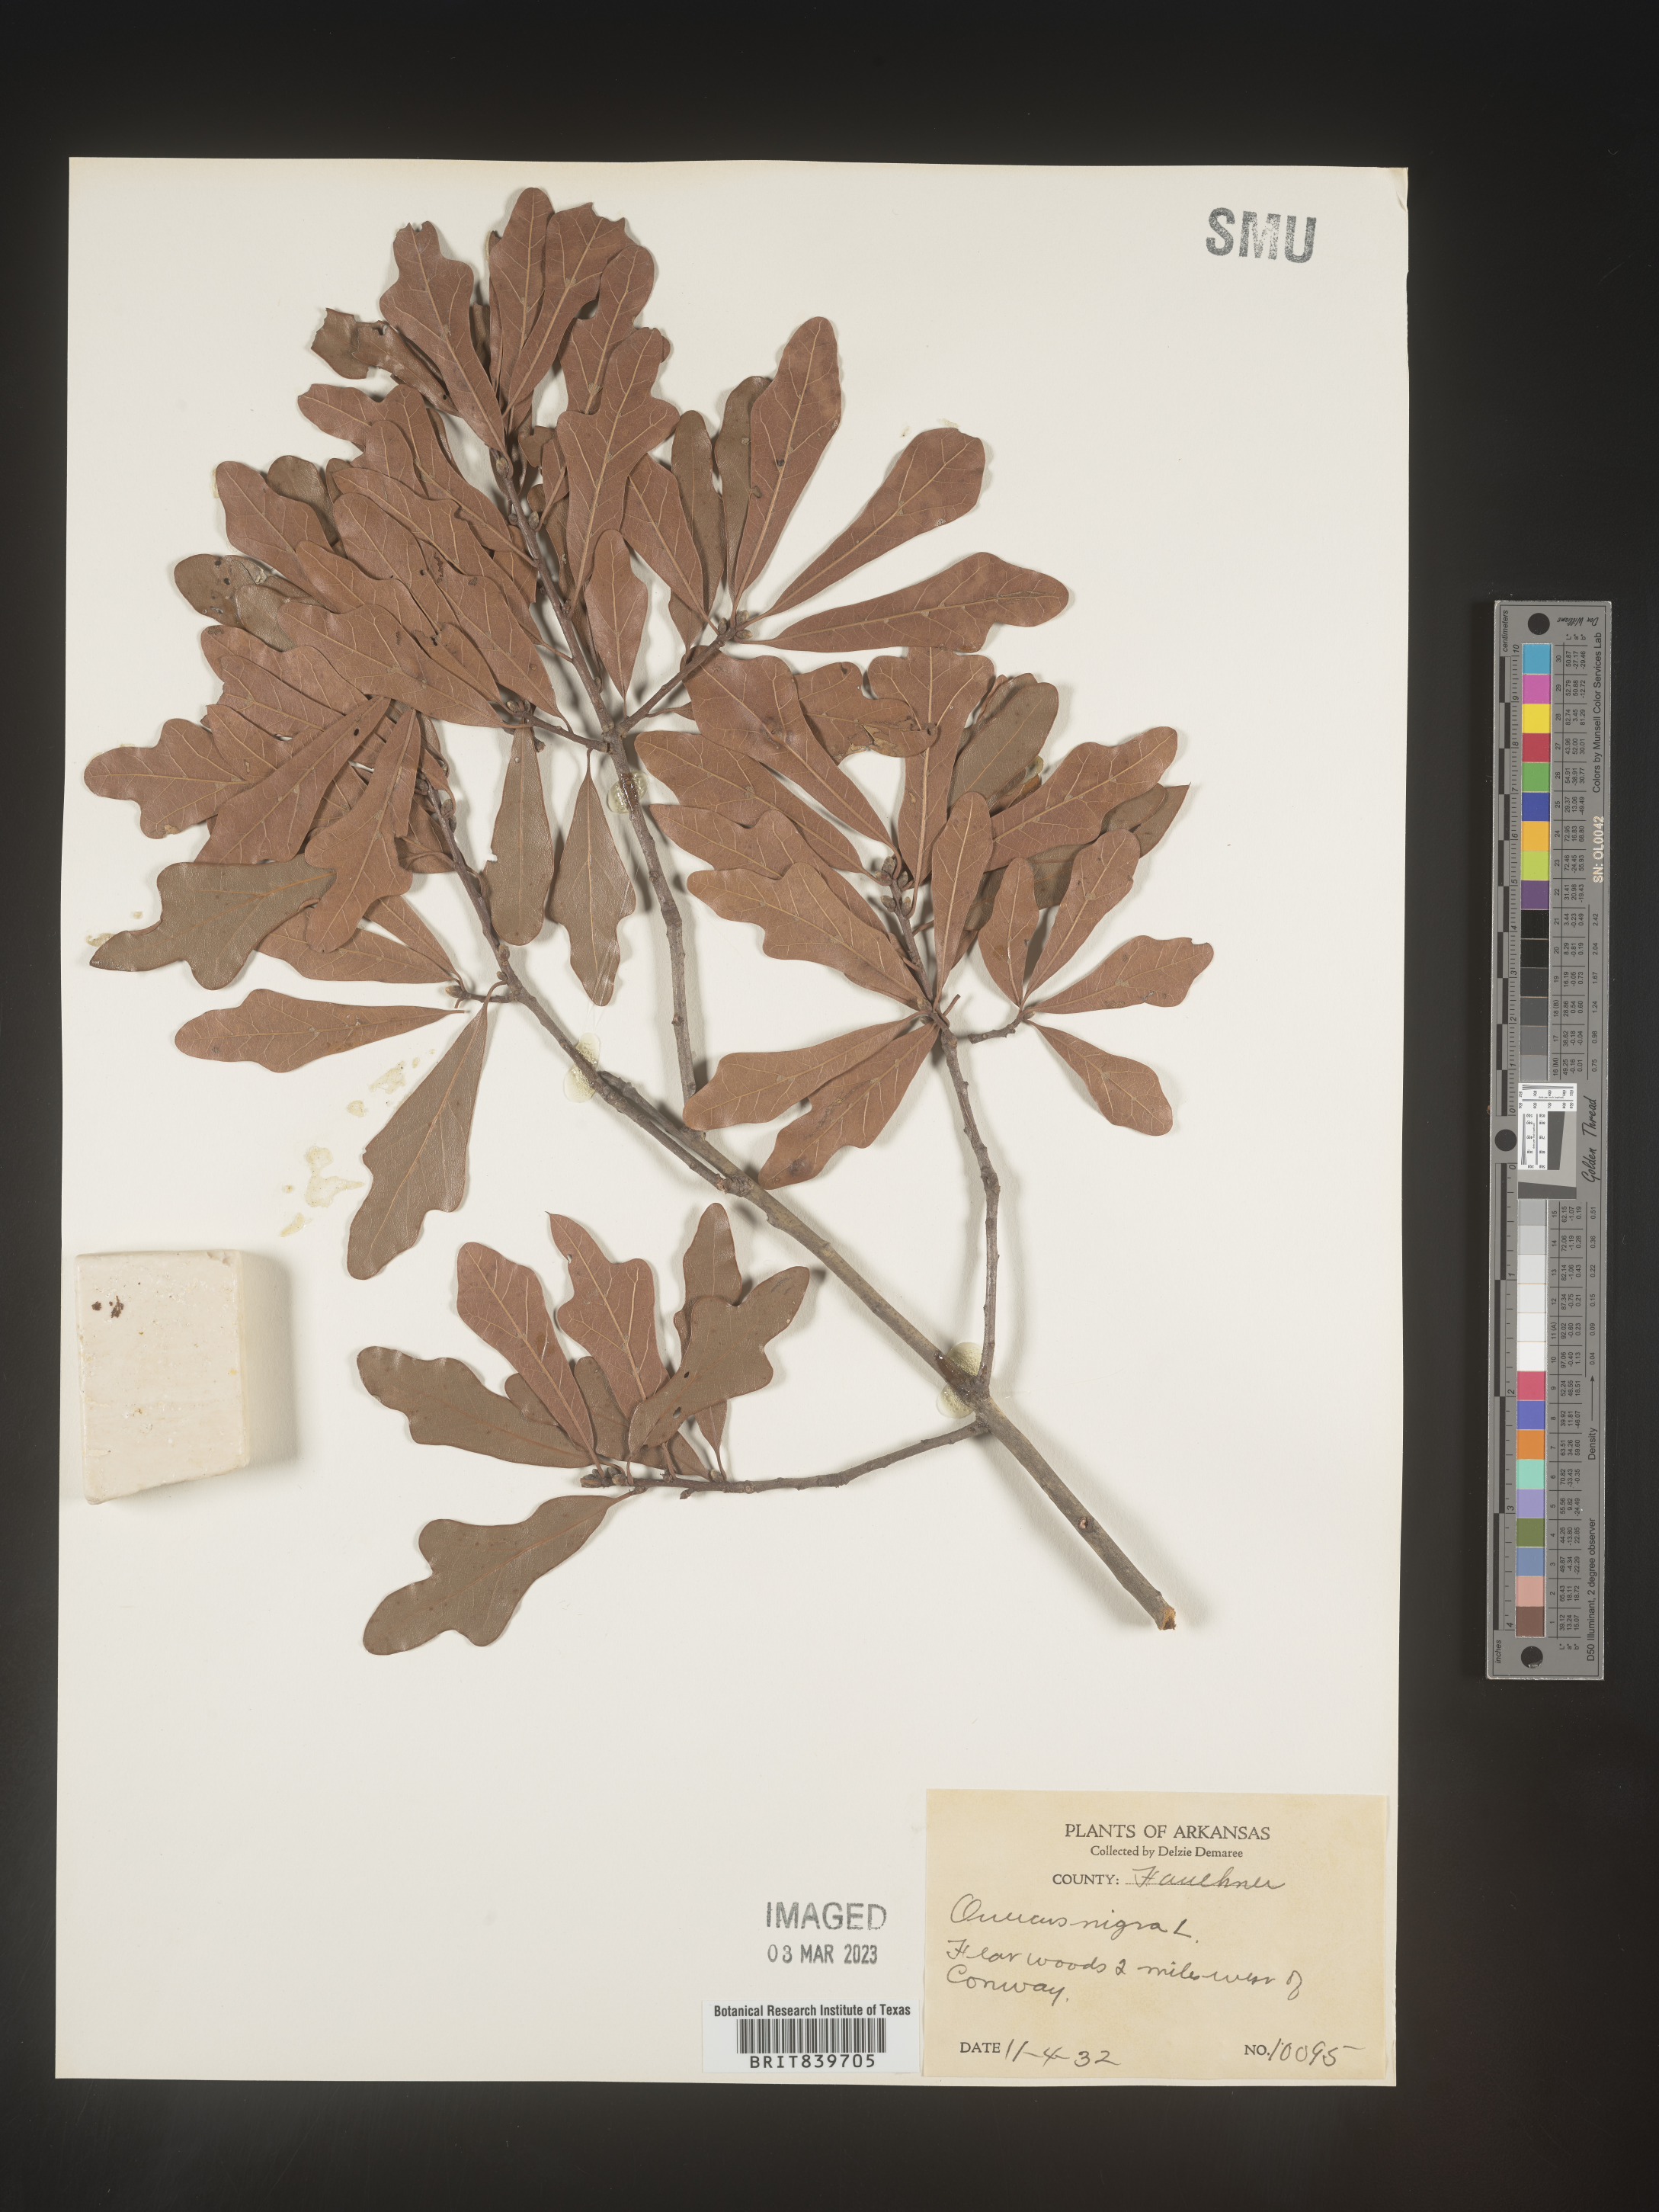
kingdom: Plantae
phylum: Tracheophyta
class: Magnoliopsida
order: Fagales
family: Fagaceae
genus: Quercus
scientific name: Quercus nigra
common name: Water oak
